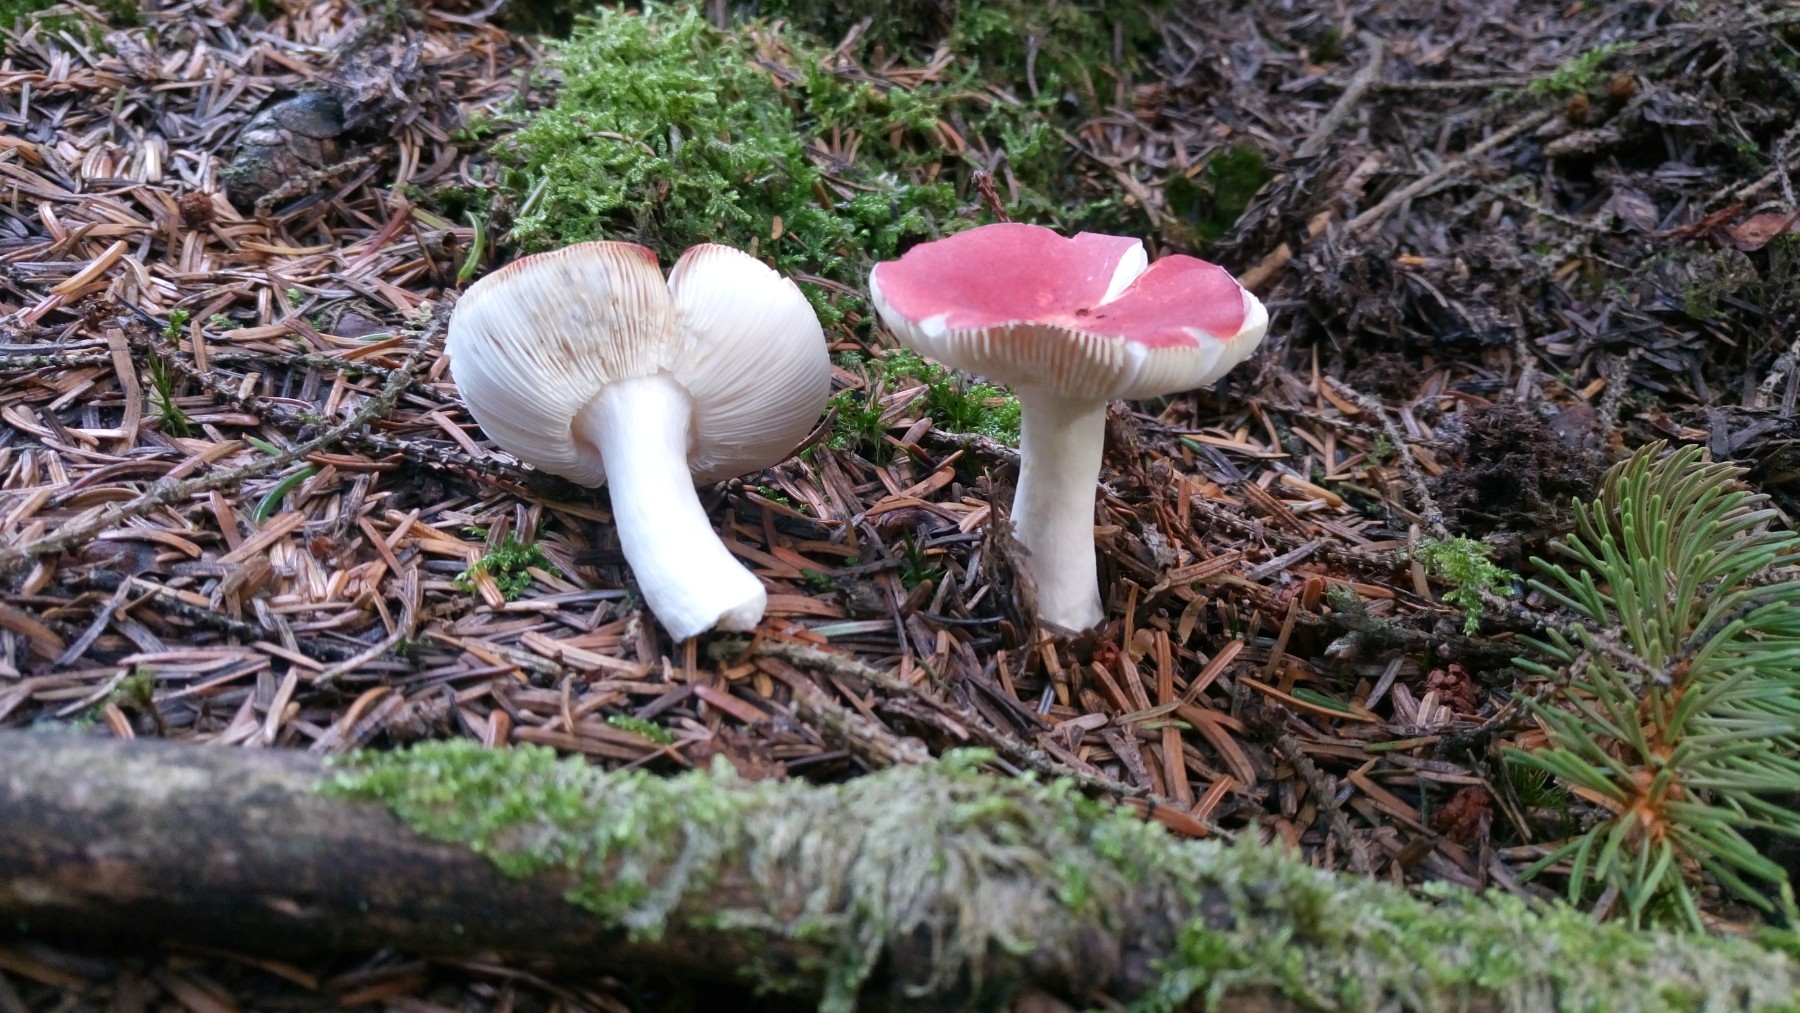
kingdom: Fungi
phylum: Basidiomycota
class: Agaricomycetes
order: Russulales
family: Russulaceae
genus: Russula
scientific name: Russula emetica
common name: stor gift-skørhat
